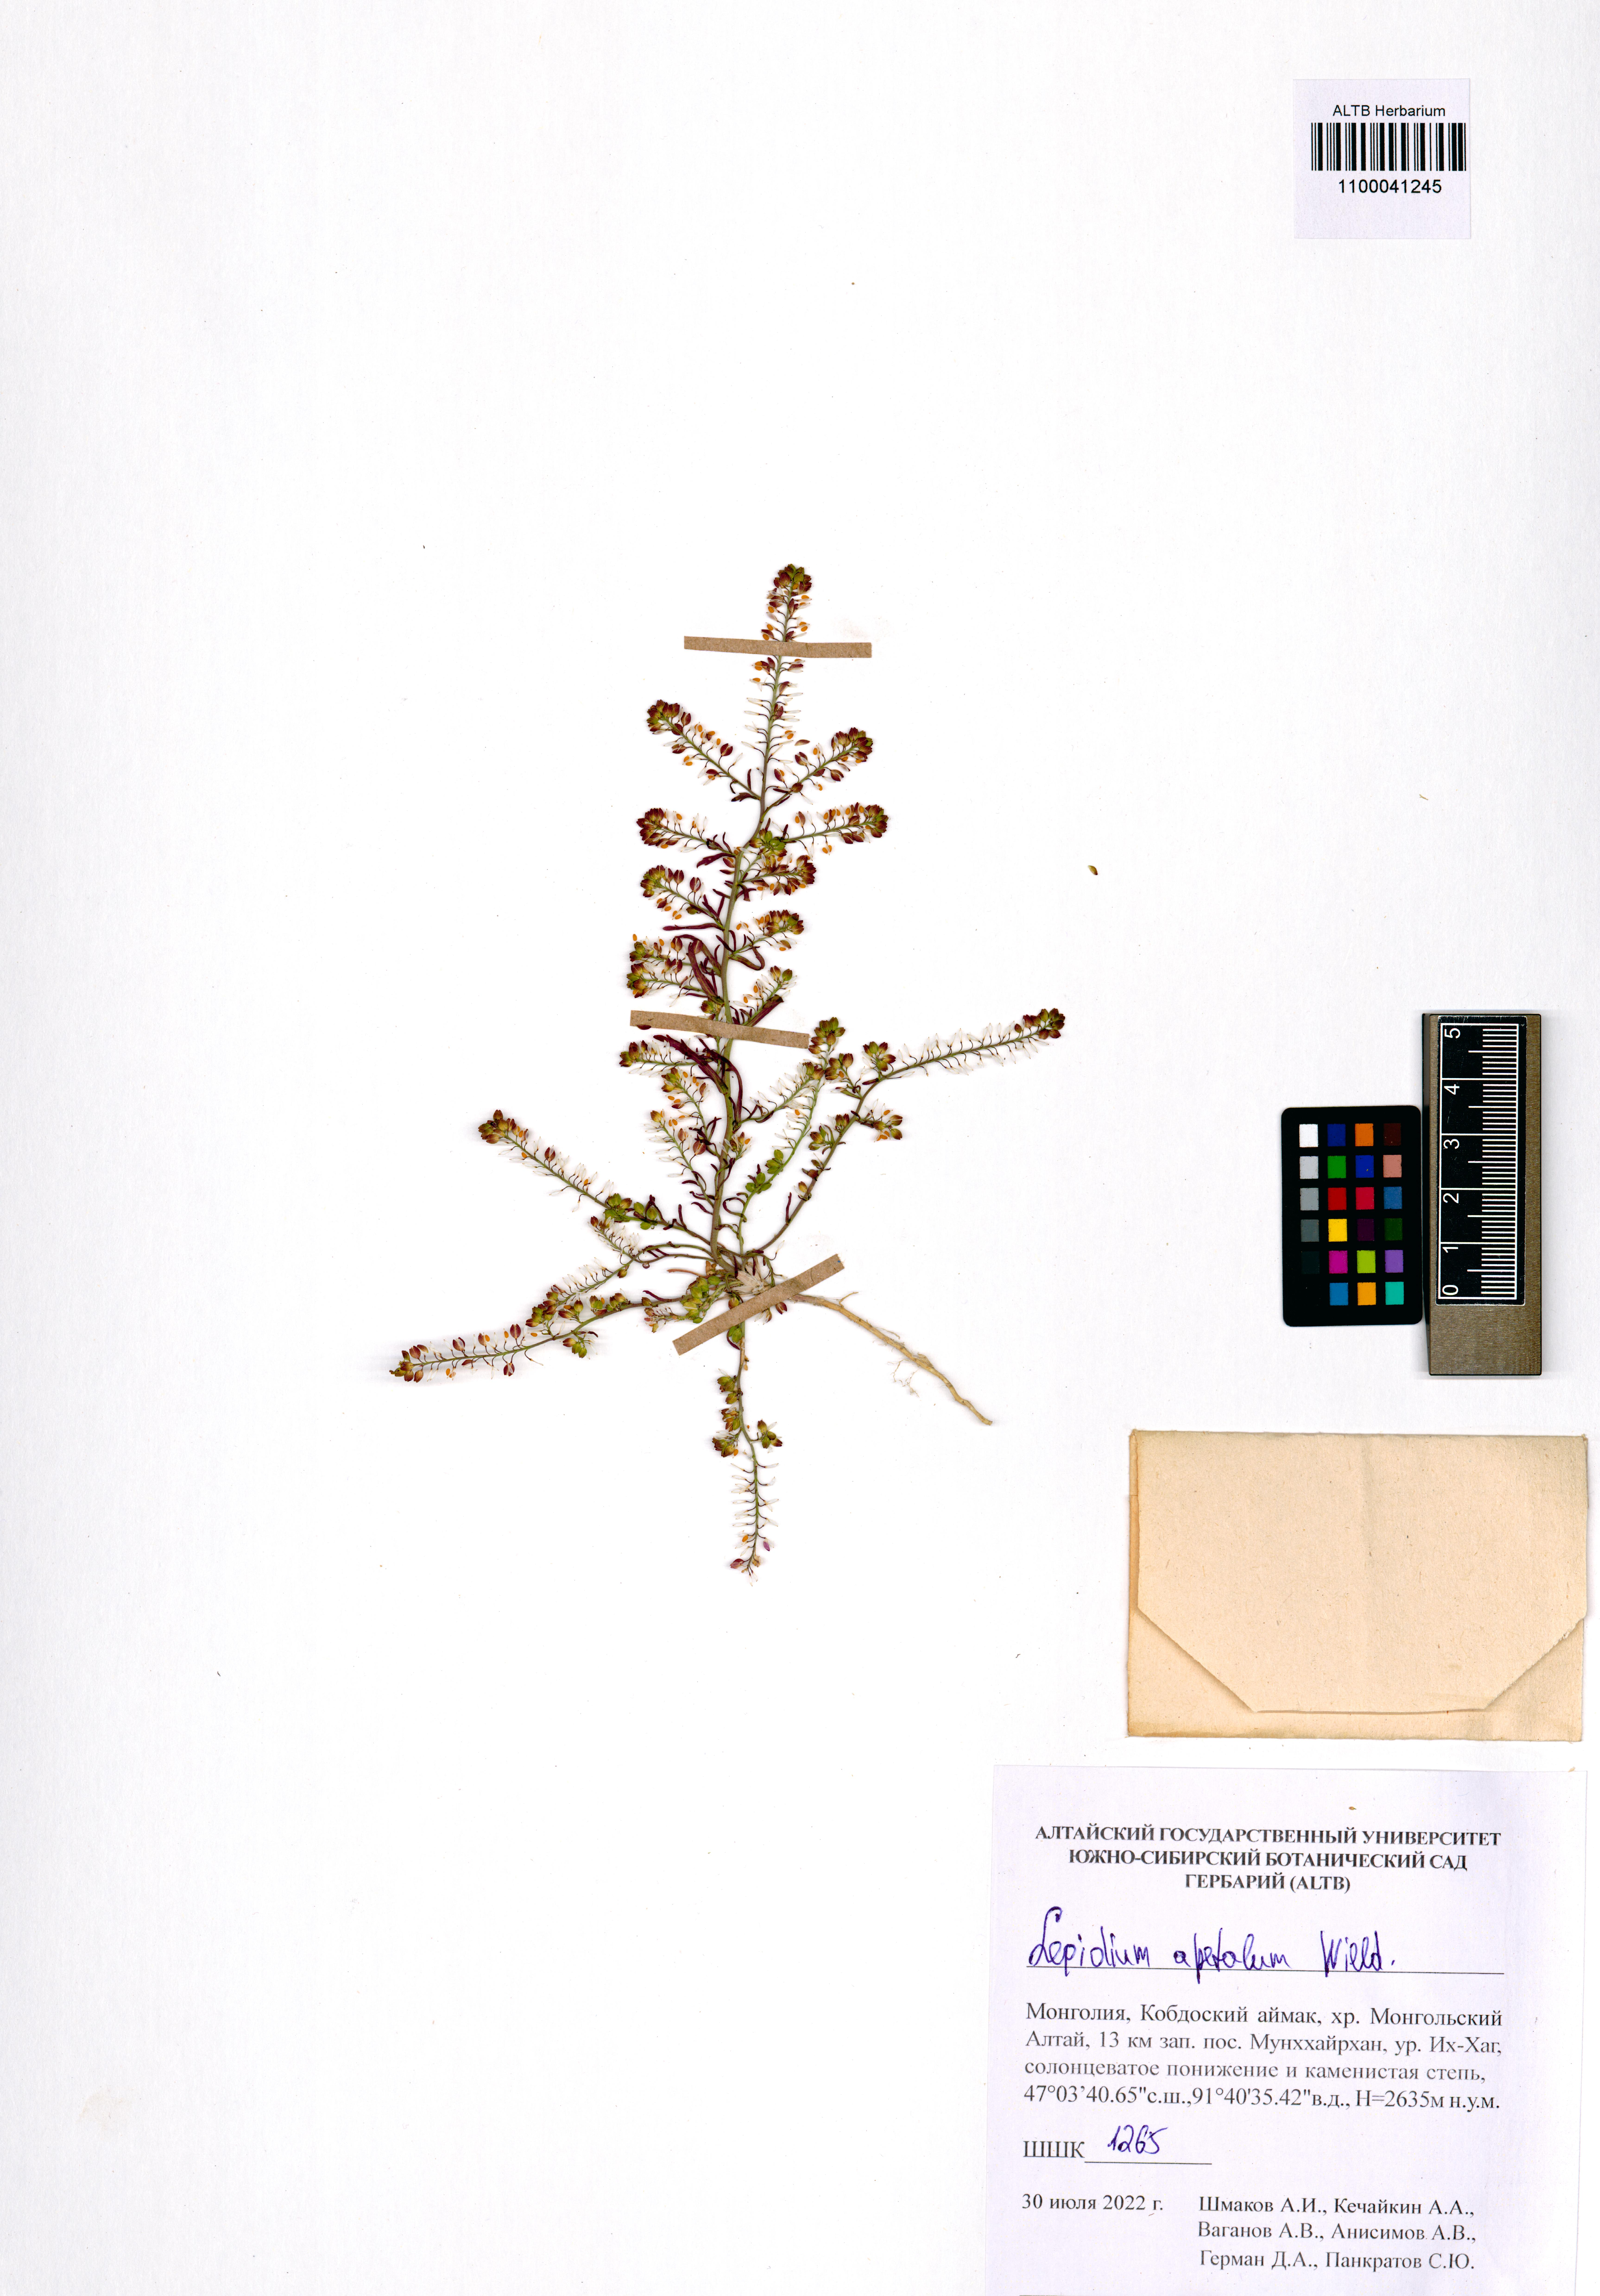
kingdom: Plantae
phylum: Tracheophyta
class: Magnoliopsida
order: Brassicales
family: Brassicaceae
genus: Lepidium
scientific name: Lepidium apetalum
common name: Pepperweed
